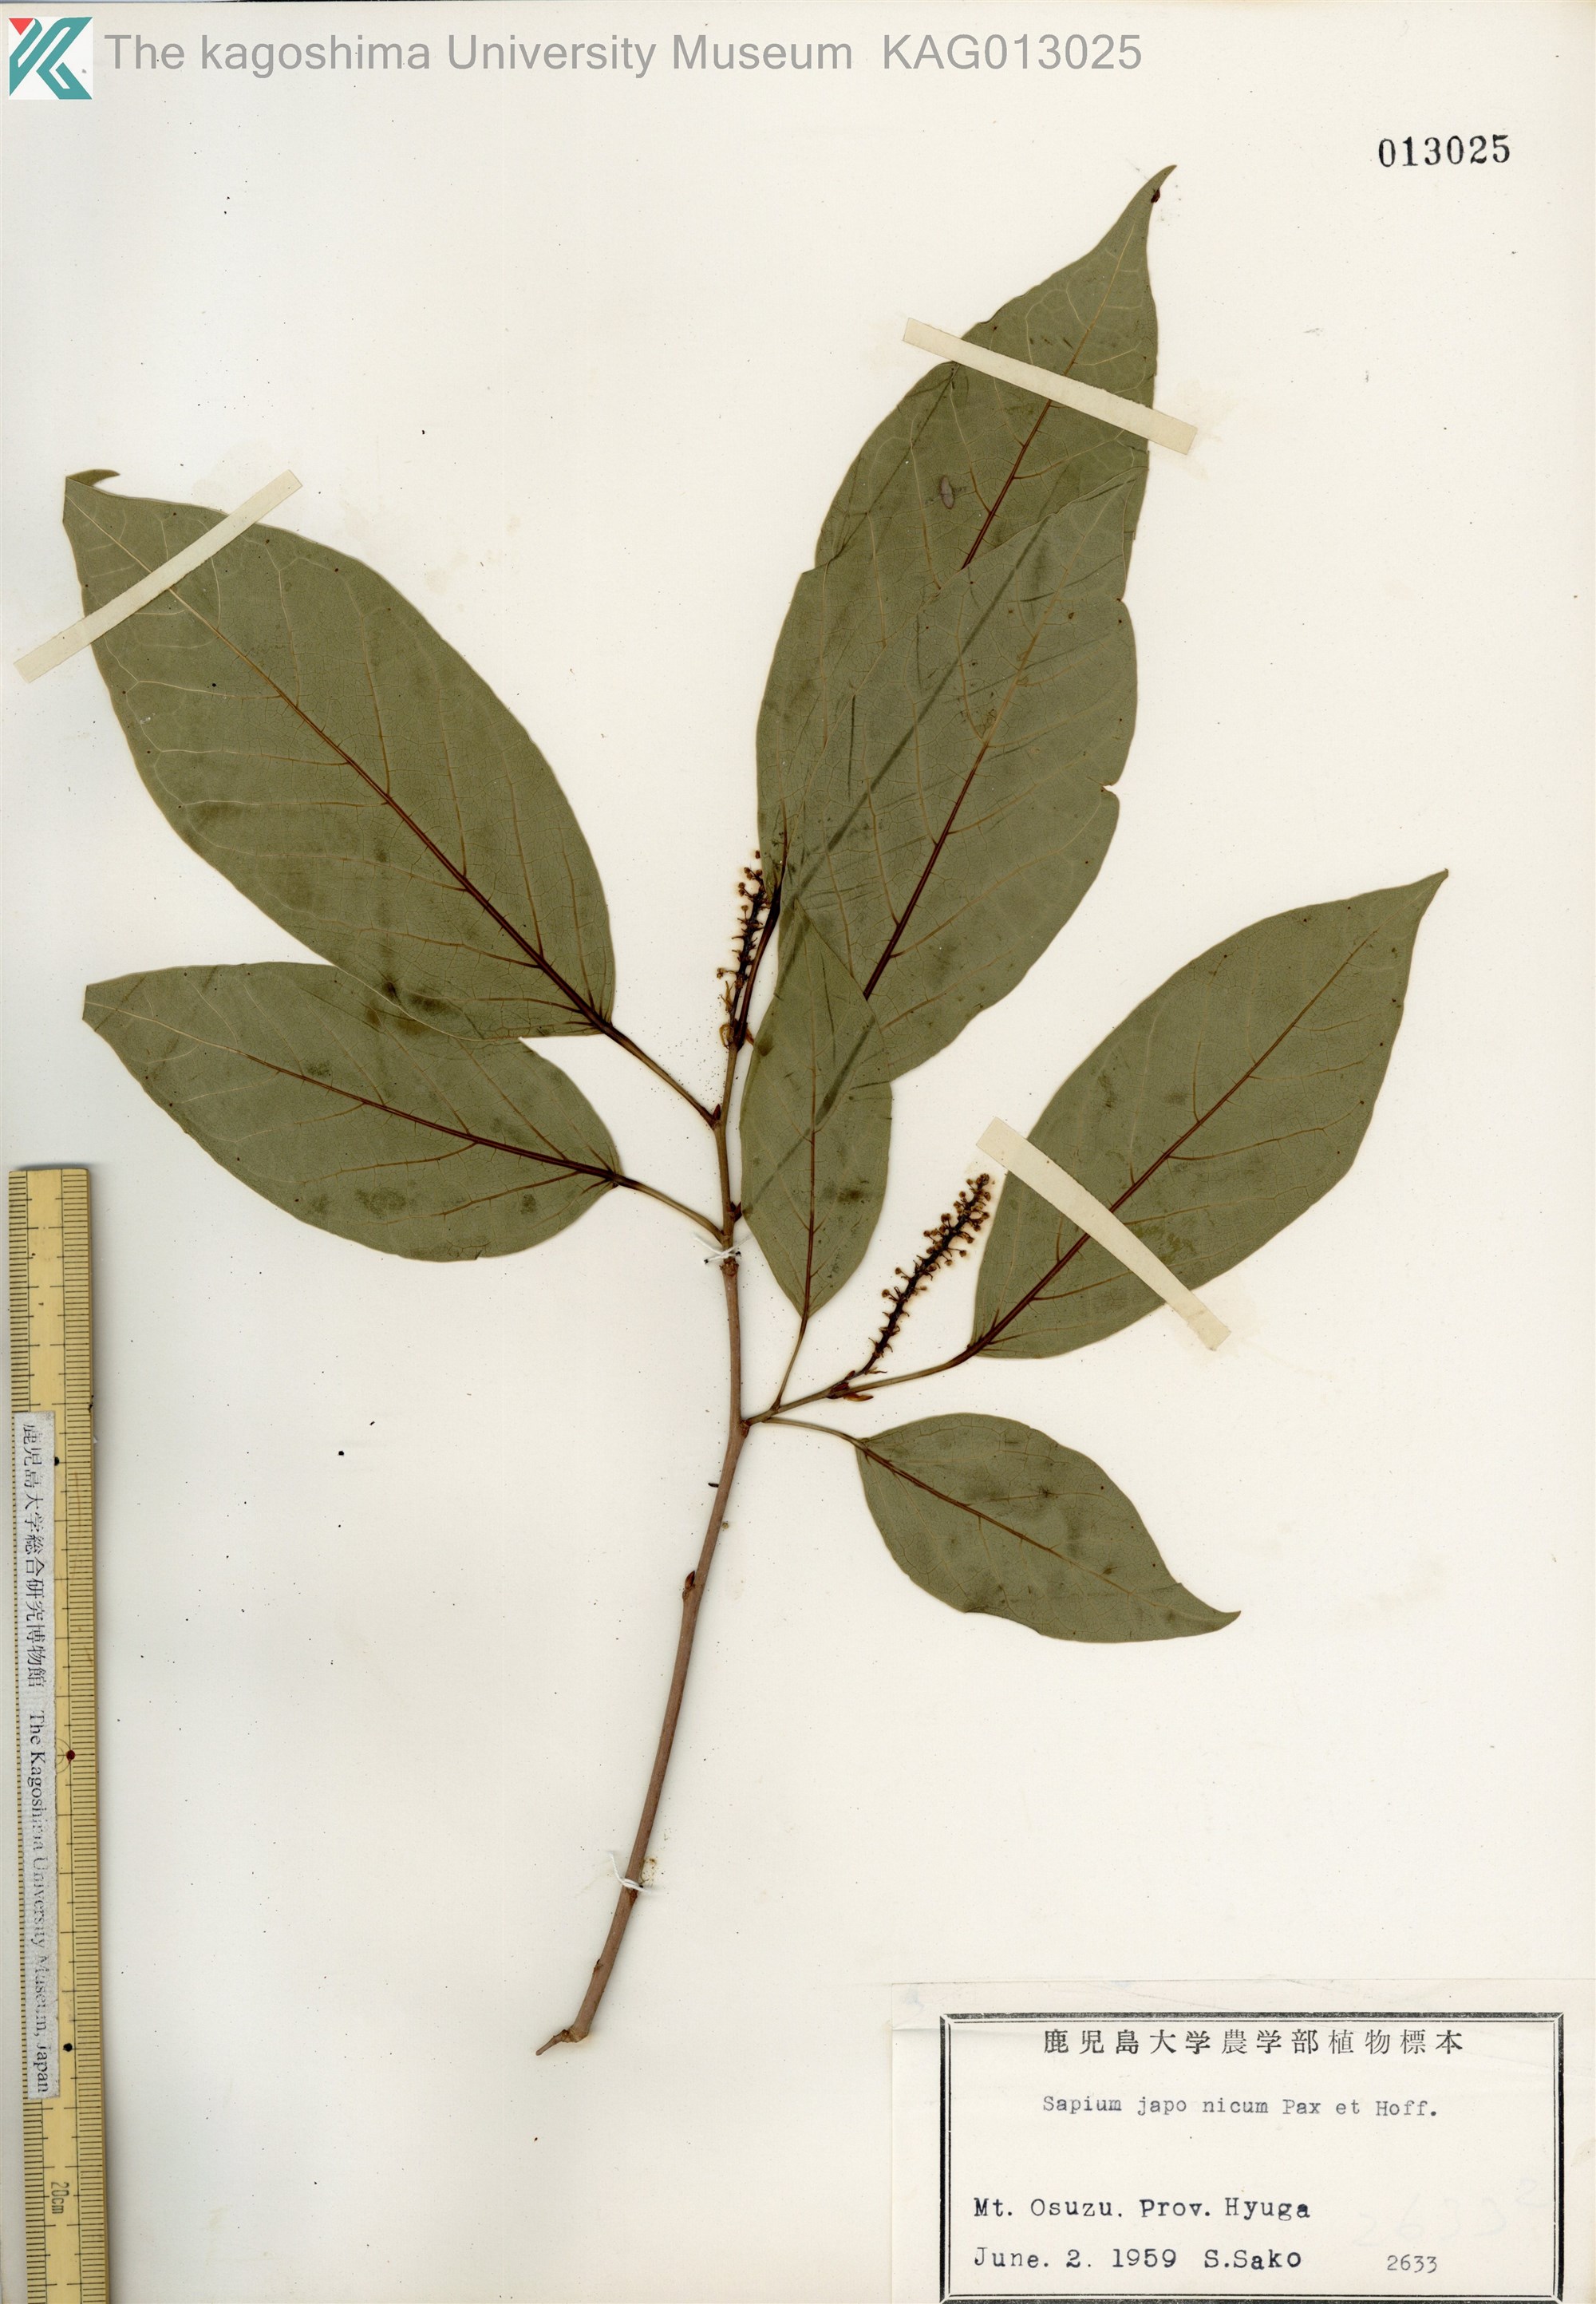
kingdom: Plantae
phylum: Tracheophyta
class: Magnoliopsida
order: Malpighiales
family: Euphorbiaceae
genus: Neoshirakia
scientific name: Neoshirakia japonica
